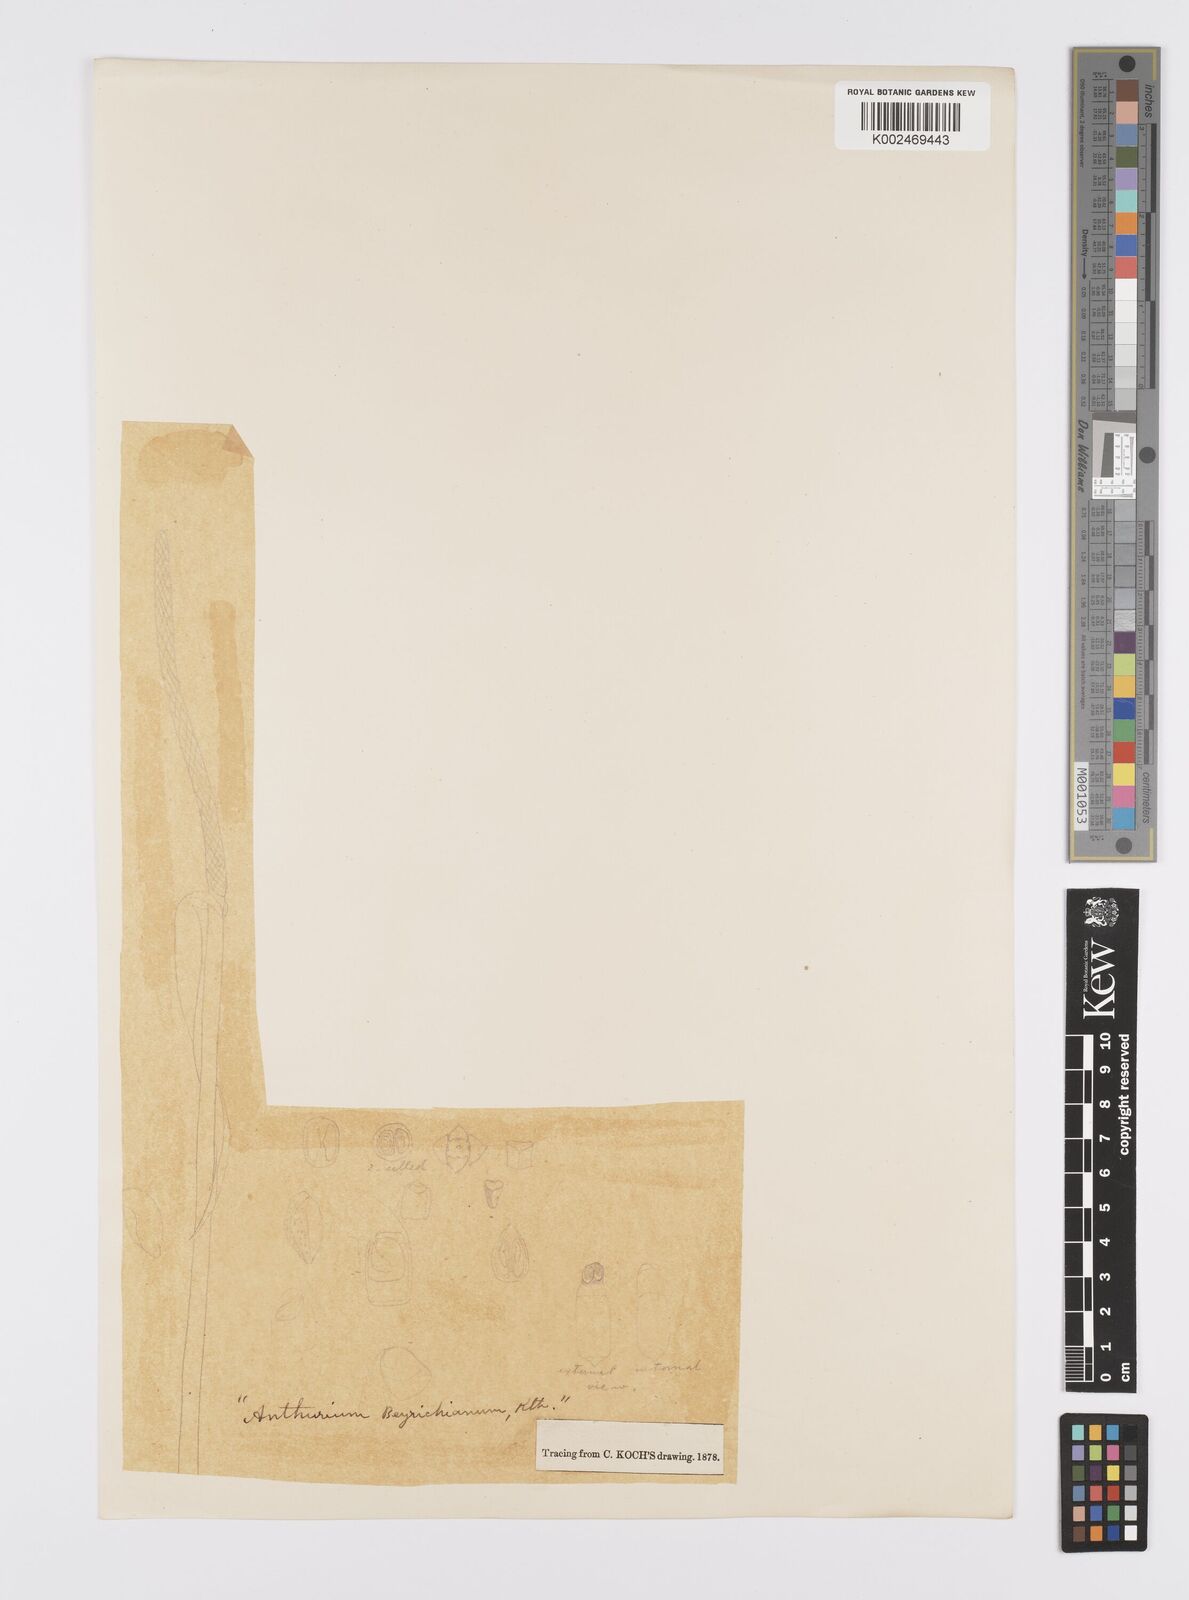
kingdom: Plantae
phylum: Tracheophyta
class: Liliopsida
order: Alismatales
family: Araceae
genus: Anthurium
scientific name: Anthurium intermedium
